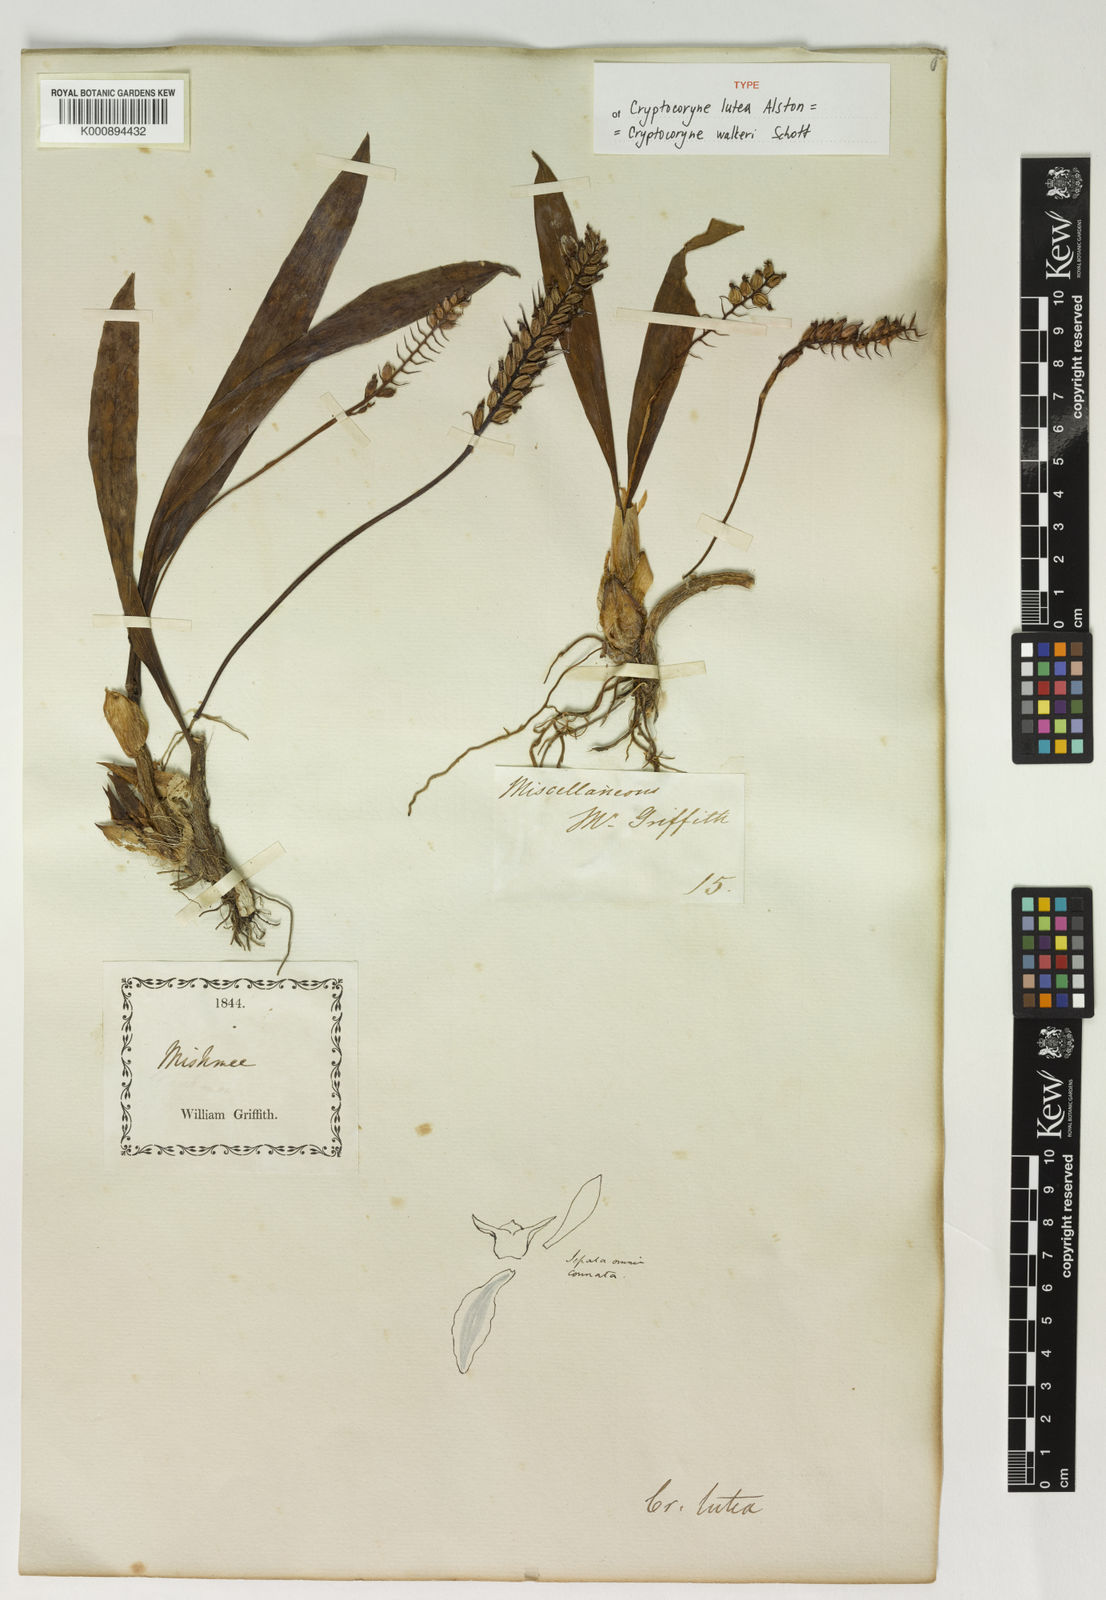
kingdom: Plantae
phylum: Tracheophyta
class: Liliopsida
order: Asparagales
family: Orchidaceae
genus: Cryptochilus
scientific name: Cryptochilus luteus
